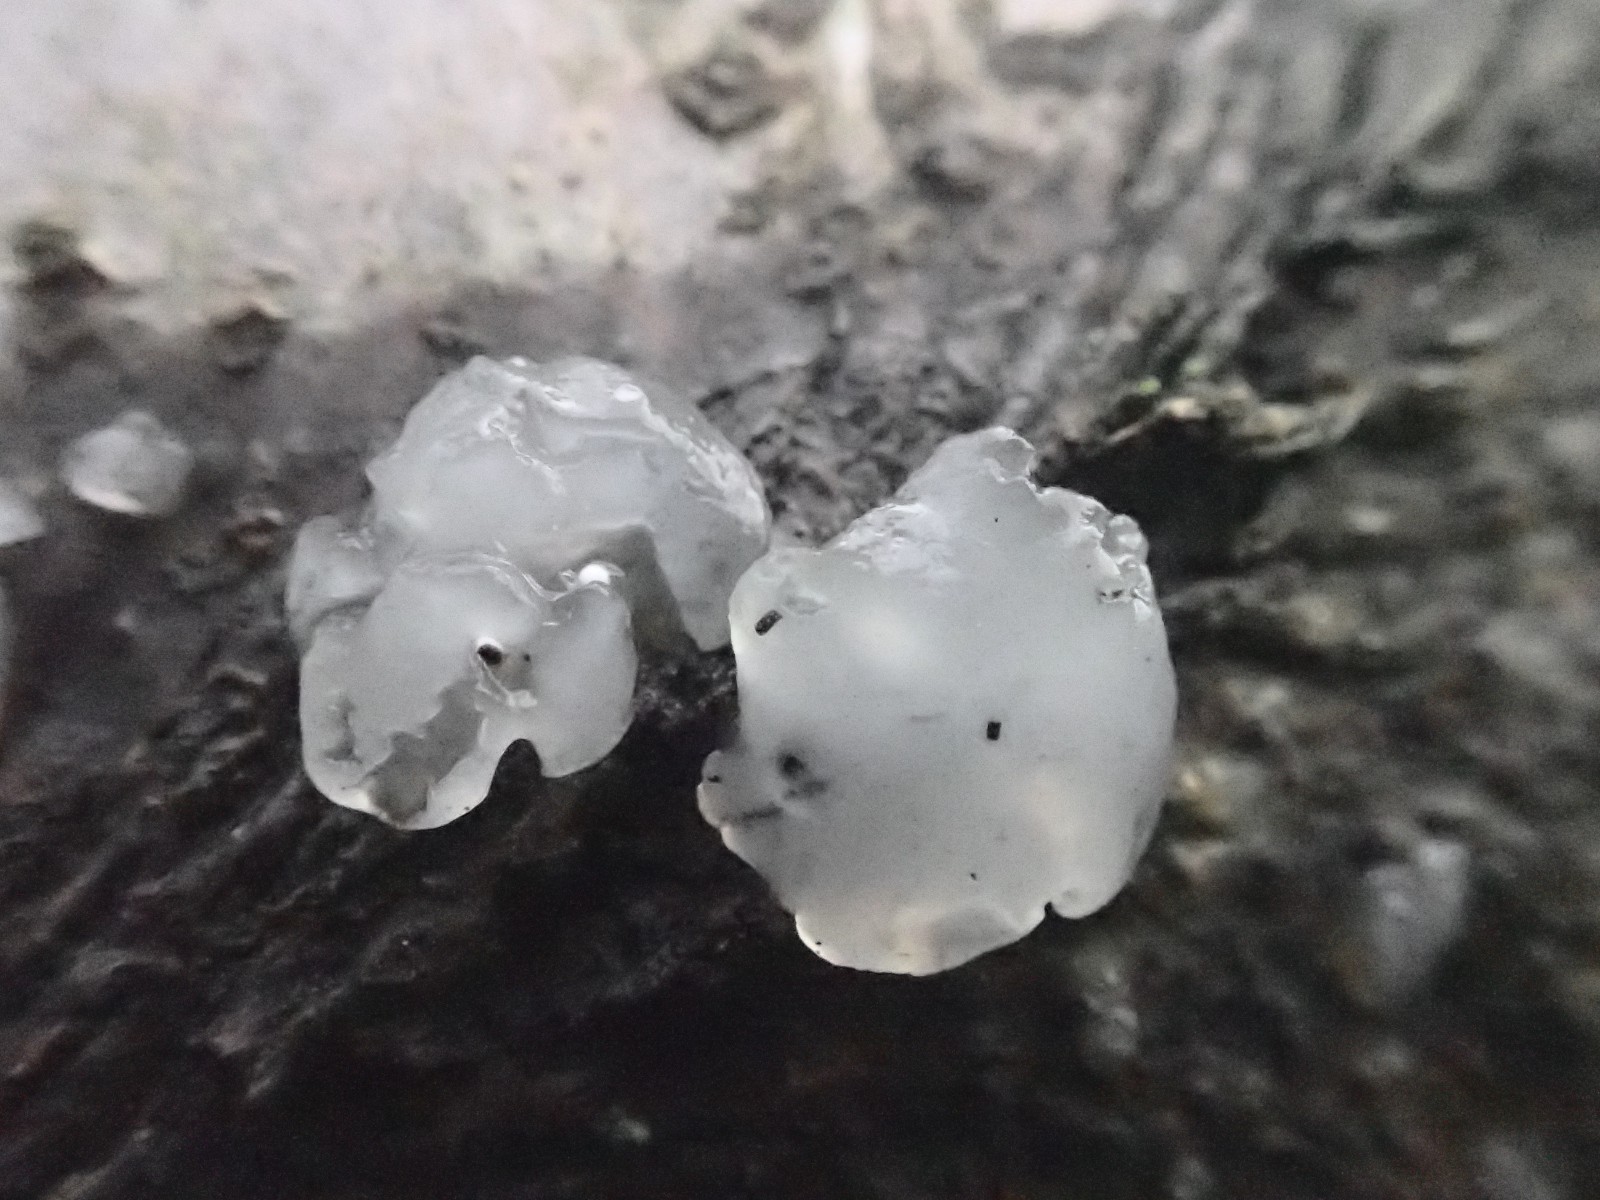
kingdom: Fungi
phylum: Basidiomycota
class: Agaricomycetes
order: Auriculariales
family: Hyaloriaceae
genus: Myxarium
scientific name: Myxarium nucleatum
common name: klar bævretop
